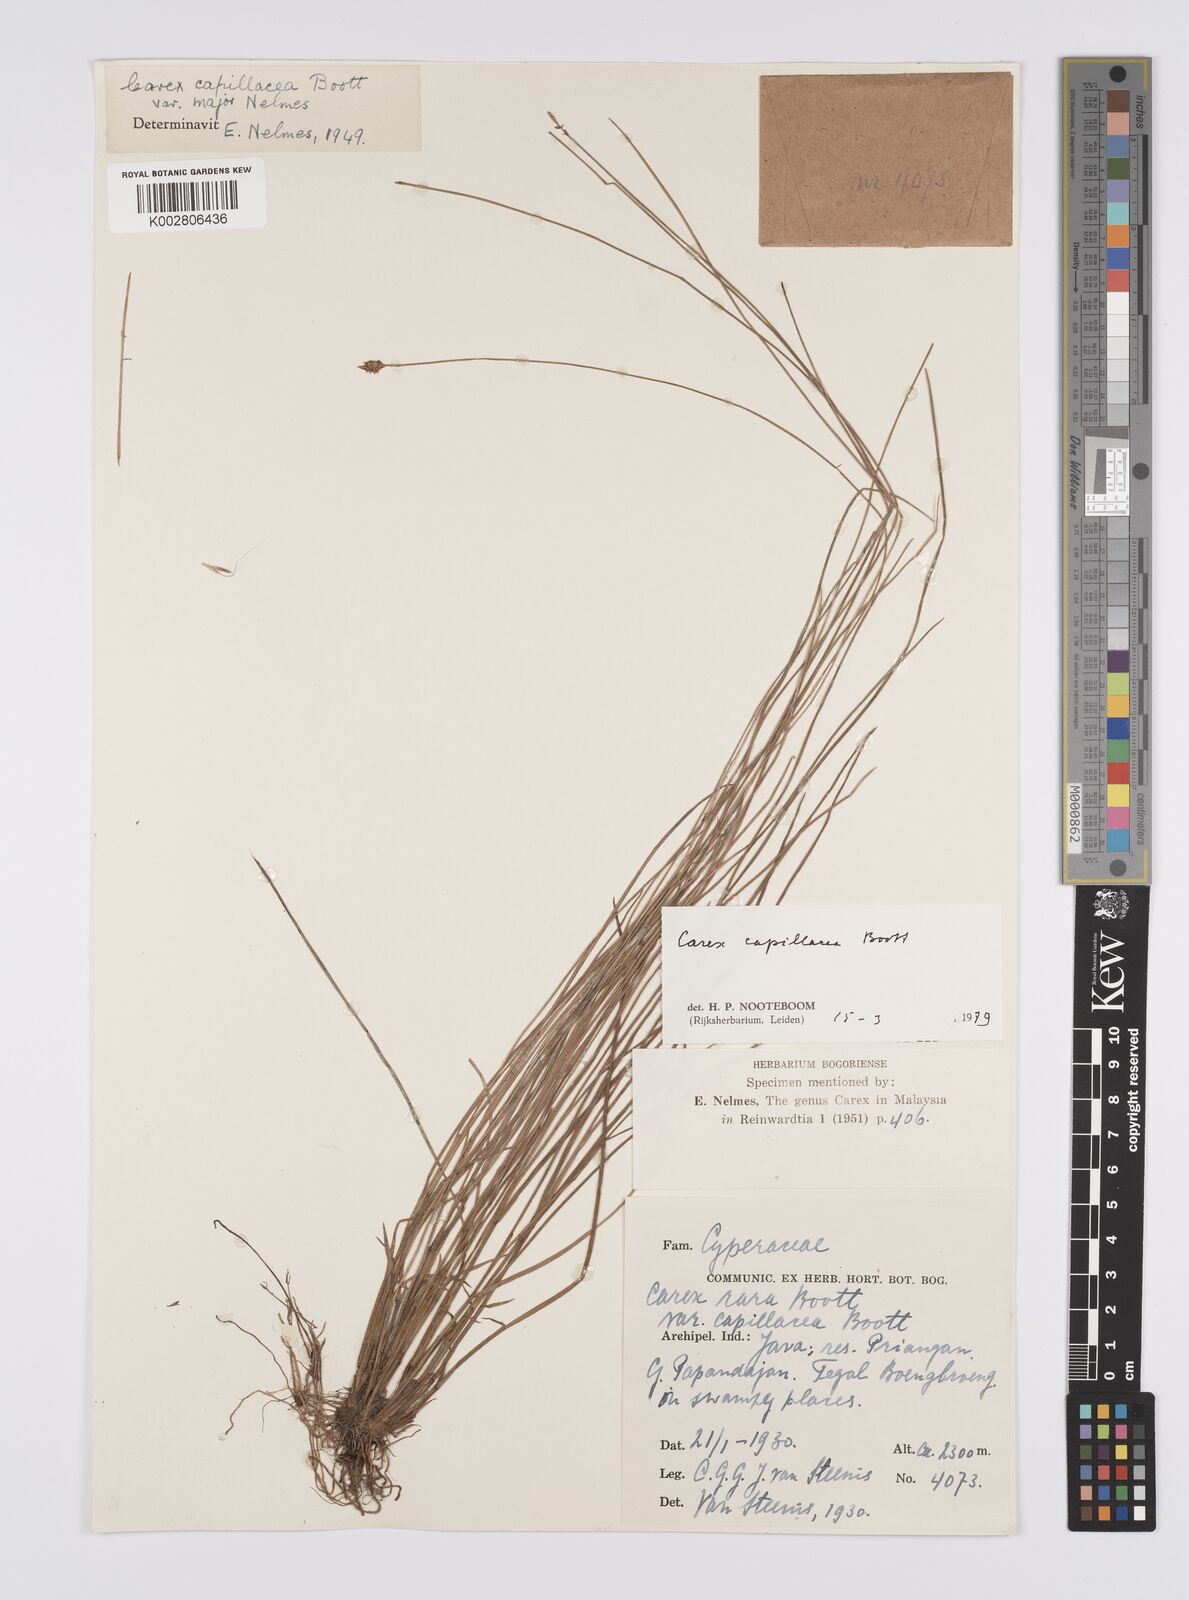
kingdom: Plantae
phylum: Tracheophyta
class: Liliopsida
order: Poales
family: Cyperaceae
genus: Carex
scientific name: Carex capillacea
